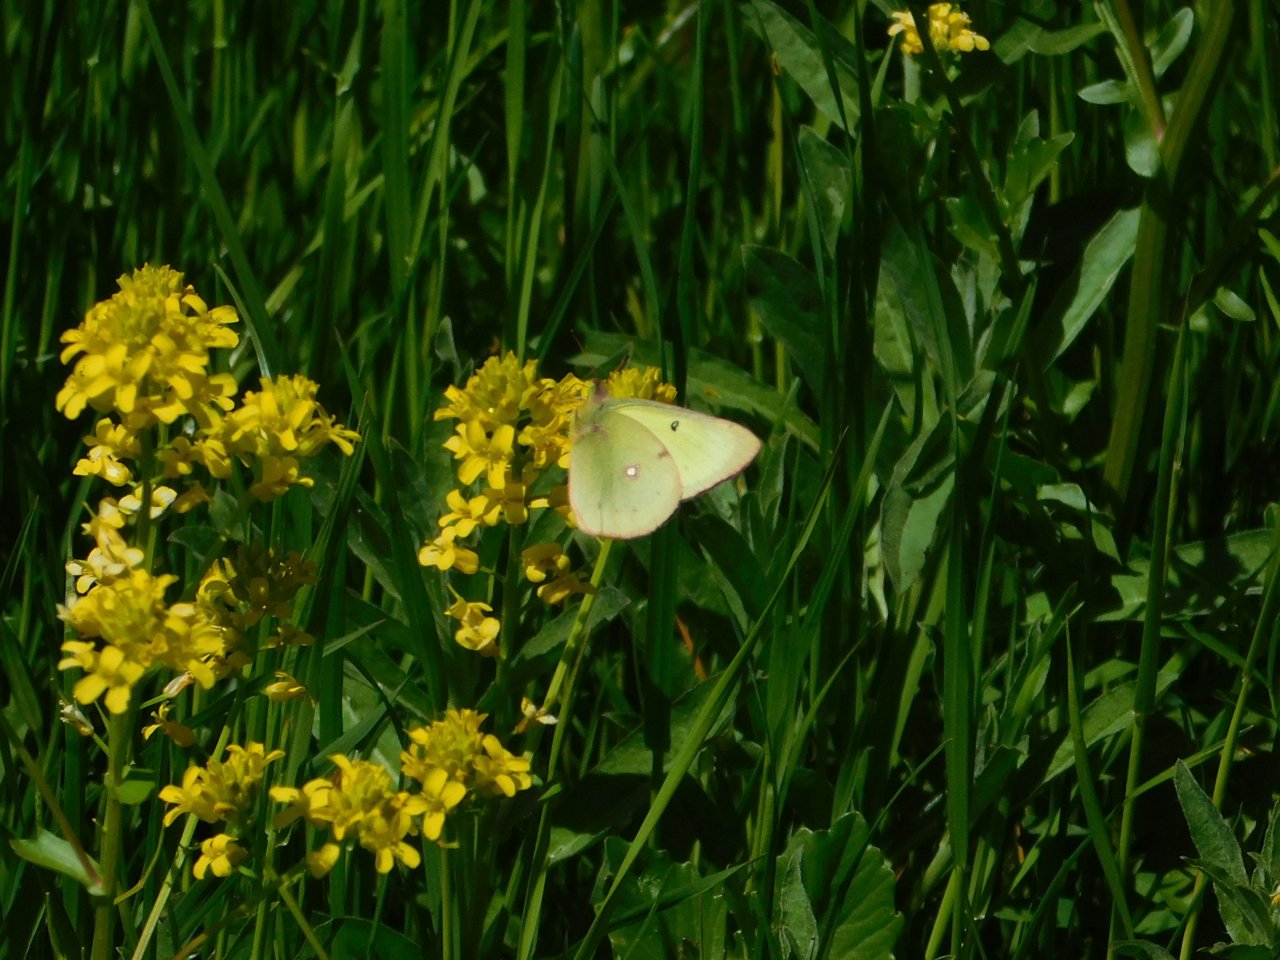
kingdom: Animalia
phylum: Arthropoda
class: Insecta
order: Lepidoptera
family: Pieridae
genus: Colias
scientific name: Colias philodice
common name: Clouded Sulphur
